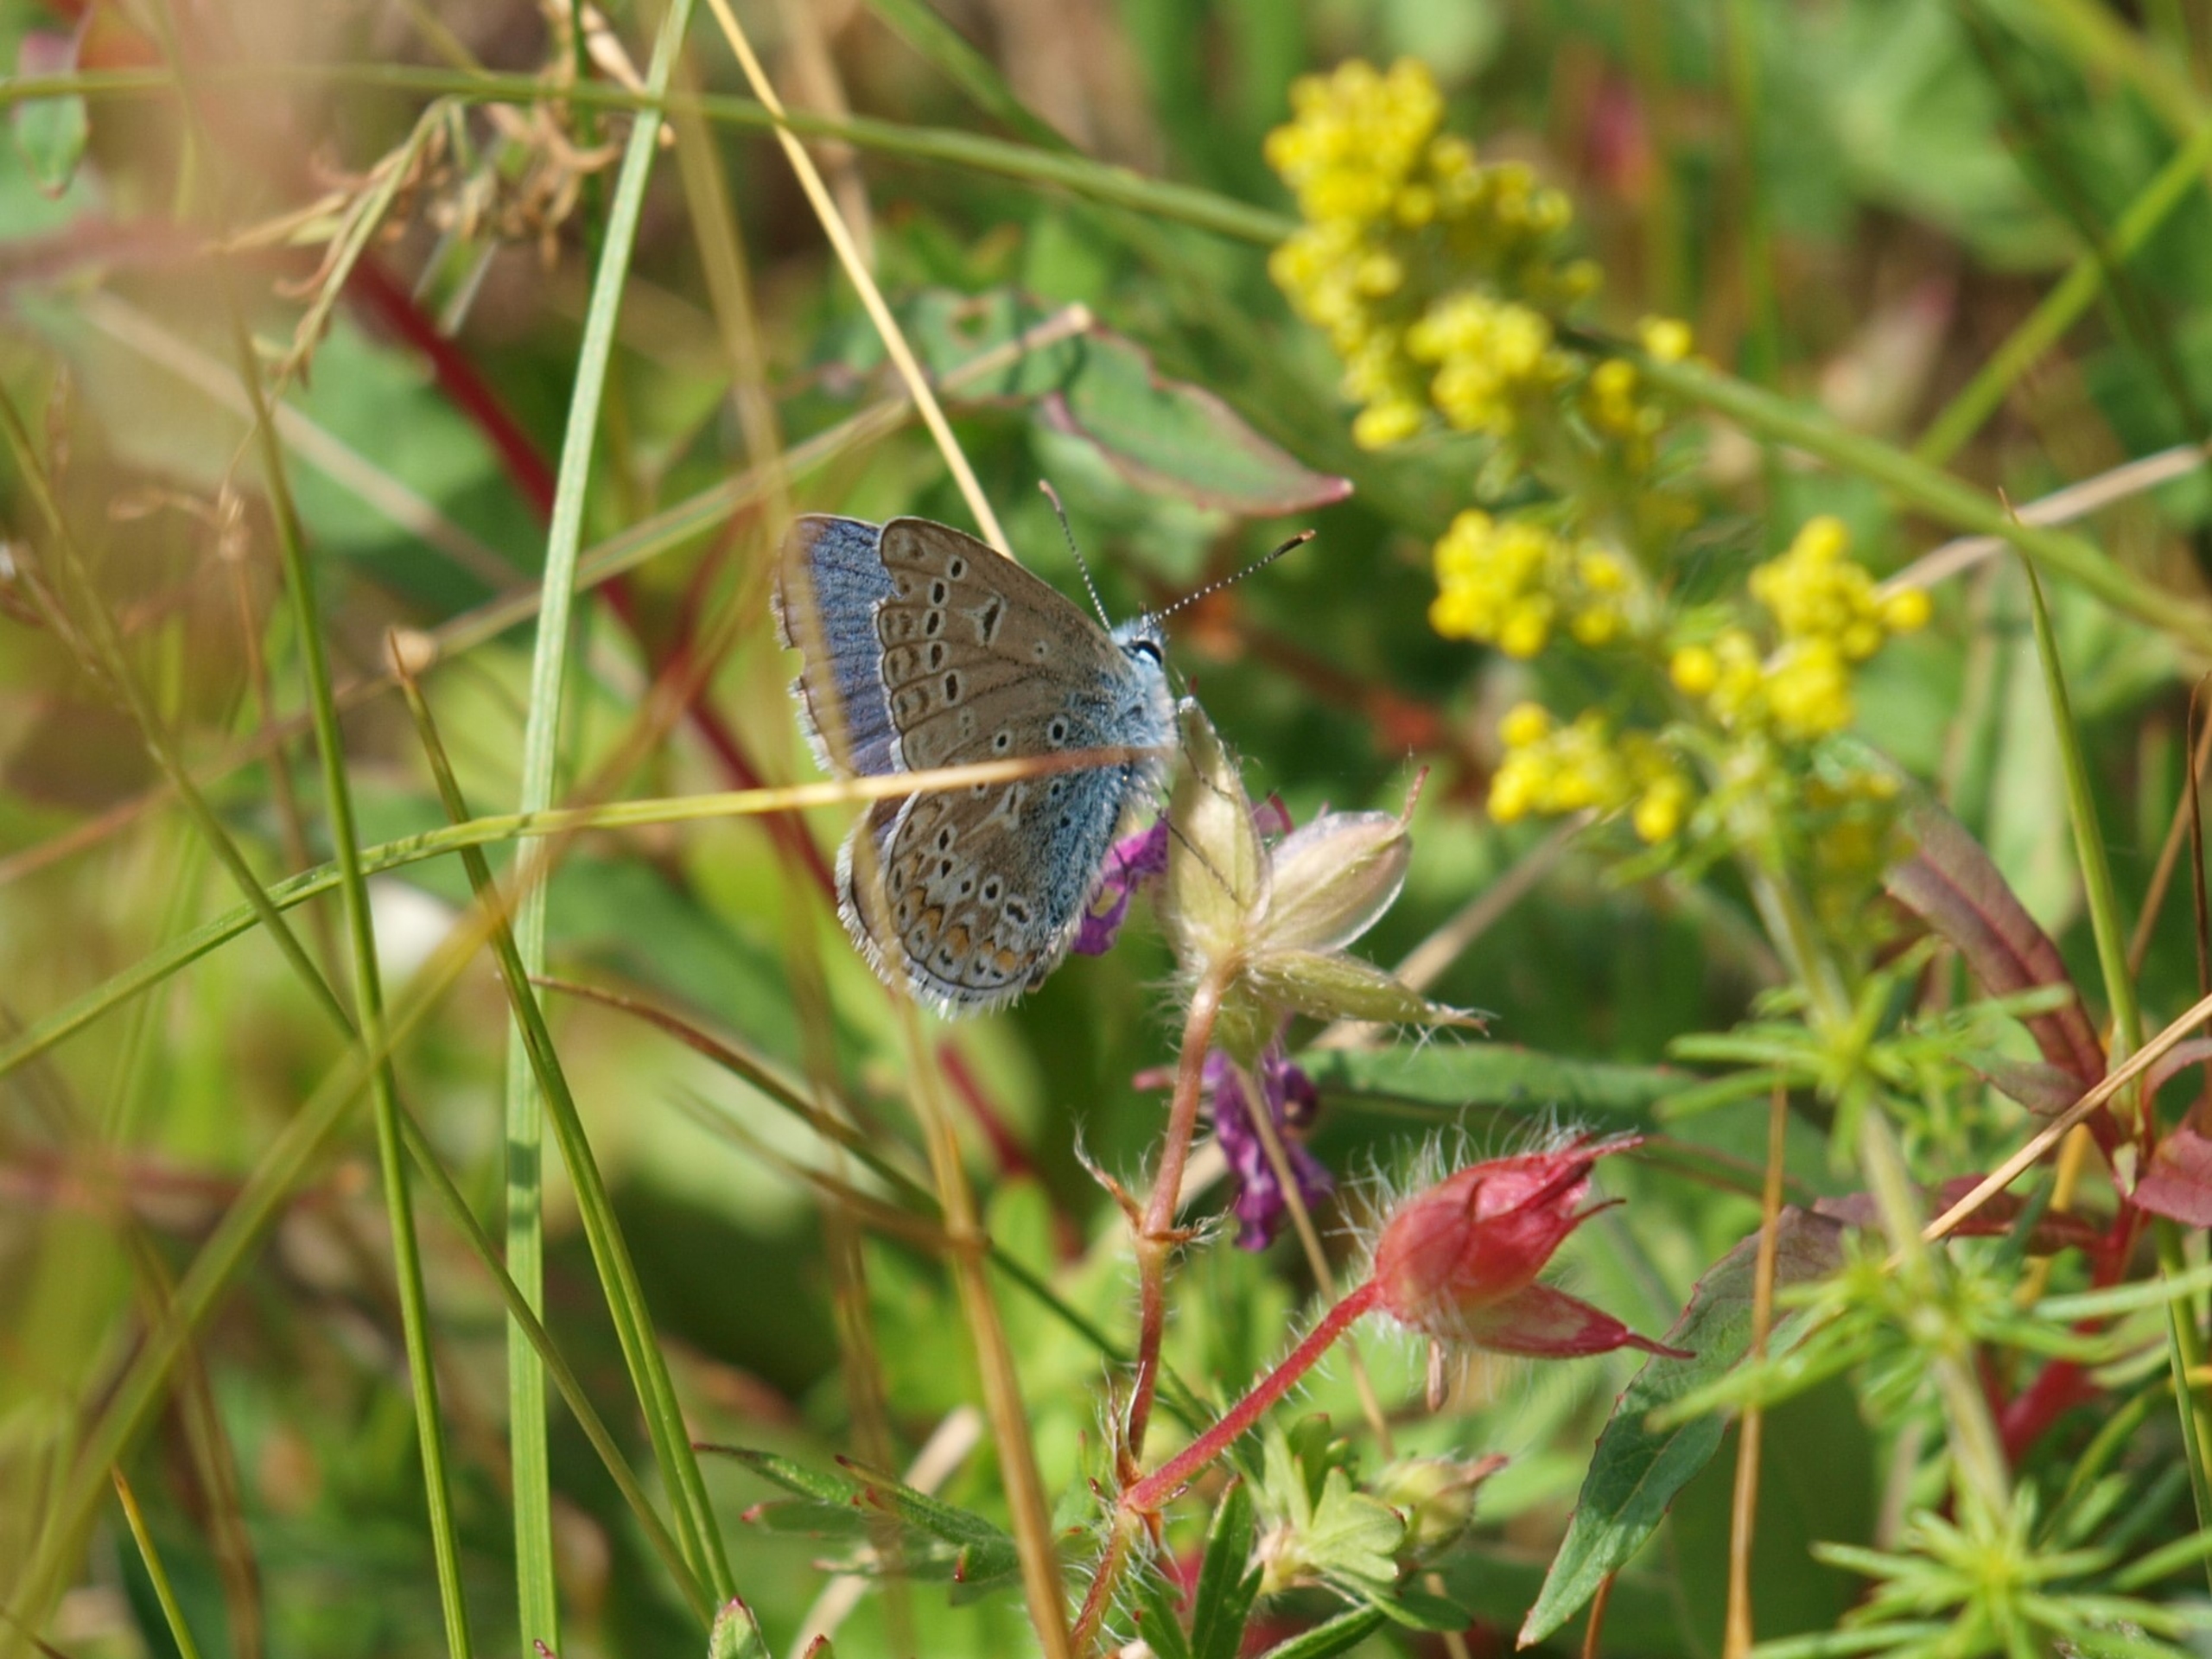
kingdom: Animalia
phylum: Arthropoda
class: Insecta
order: Lepidoptera
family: Lycaenidae
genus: Polyommatus
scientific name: Polyommatus icarus
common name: Almindelig blåfugl
